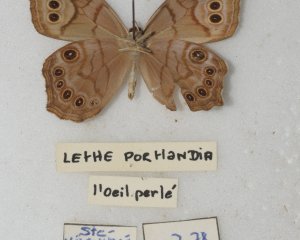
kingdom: Animalia
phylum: Arthropoda
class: Insecta
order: Lepidoptera
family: Nymphalidae
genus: Lethe
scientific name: Lethe anthedon
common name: Northern Pearly-Eye
